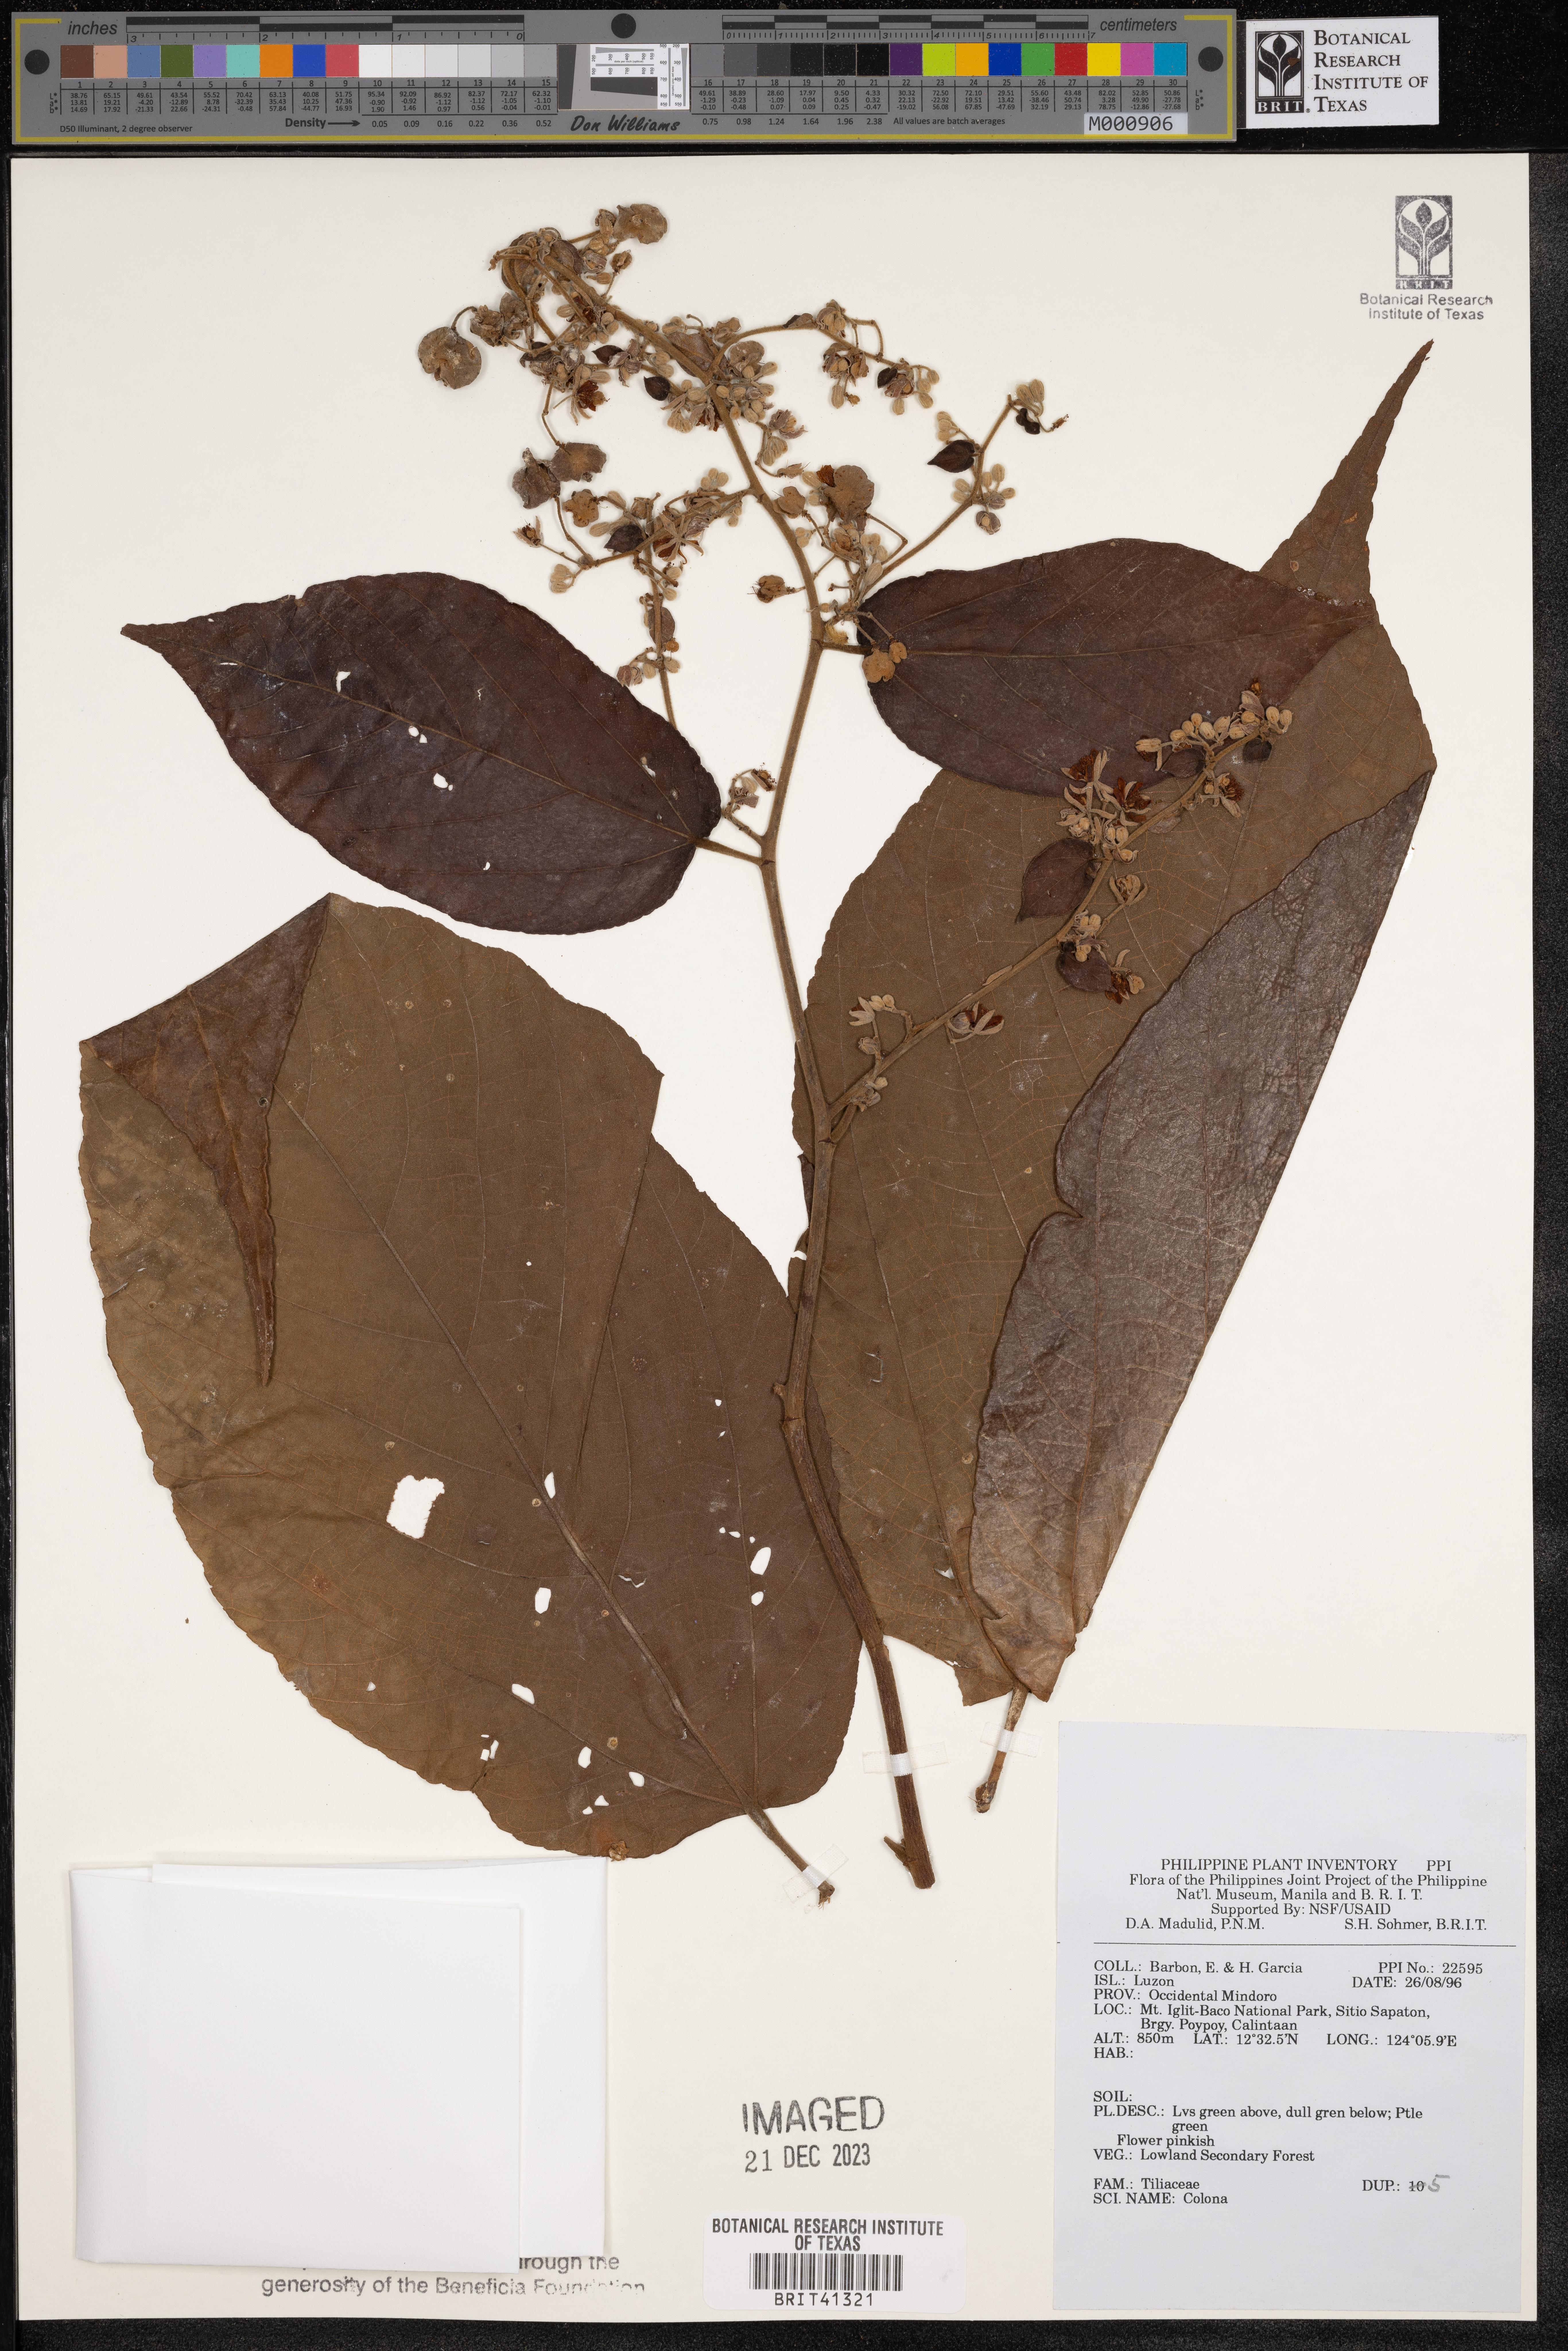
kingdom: Plantae
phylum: Tracheophyta
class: Magnoliopsida
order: Malvales
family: Malvaceae
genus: Colona
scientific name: Colona
